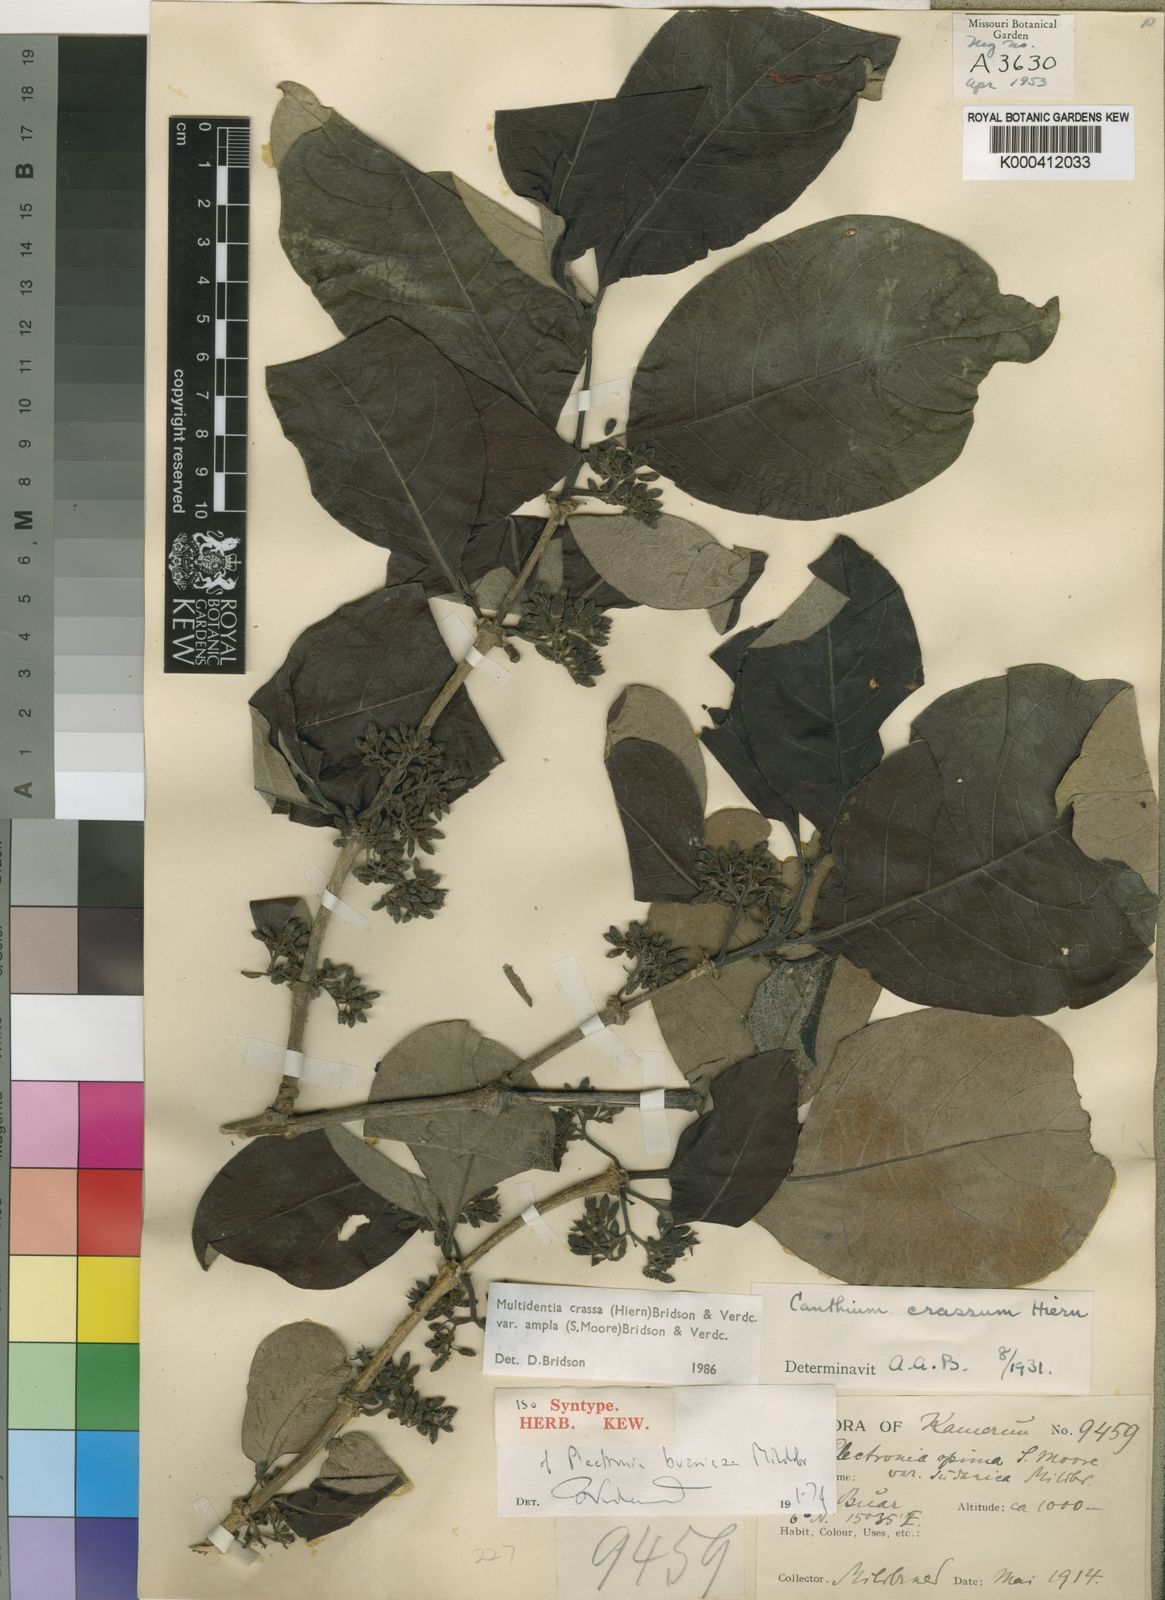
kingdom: Plantae
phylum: Tracheophyta
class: Magnoliopsida
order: Gentianales
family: Rubiaceae
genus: Multidentia
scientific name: Multidentia crassa
